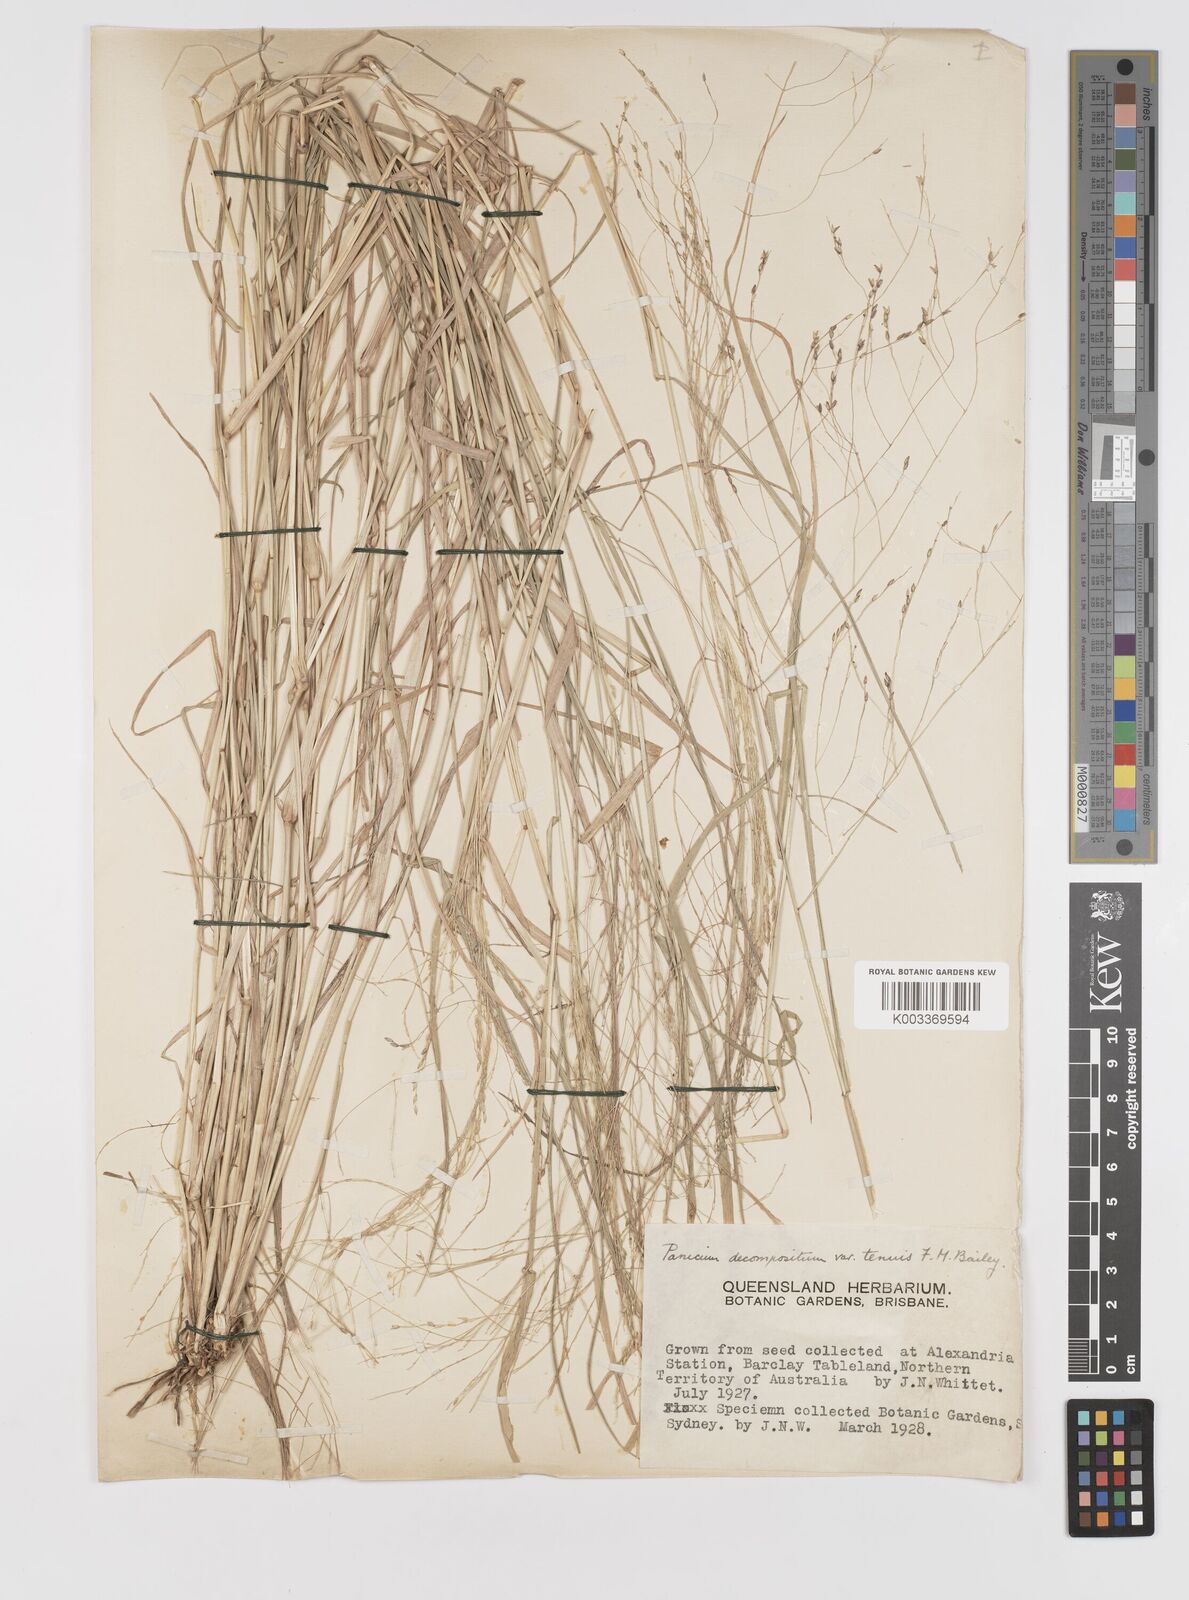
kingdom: Plantae
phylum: Tracheophyta
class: Liliopsida
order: Poales
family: Poaceae
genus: Panicum
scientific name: Panicum decompositum
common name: Australian millet
